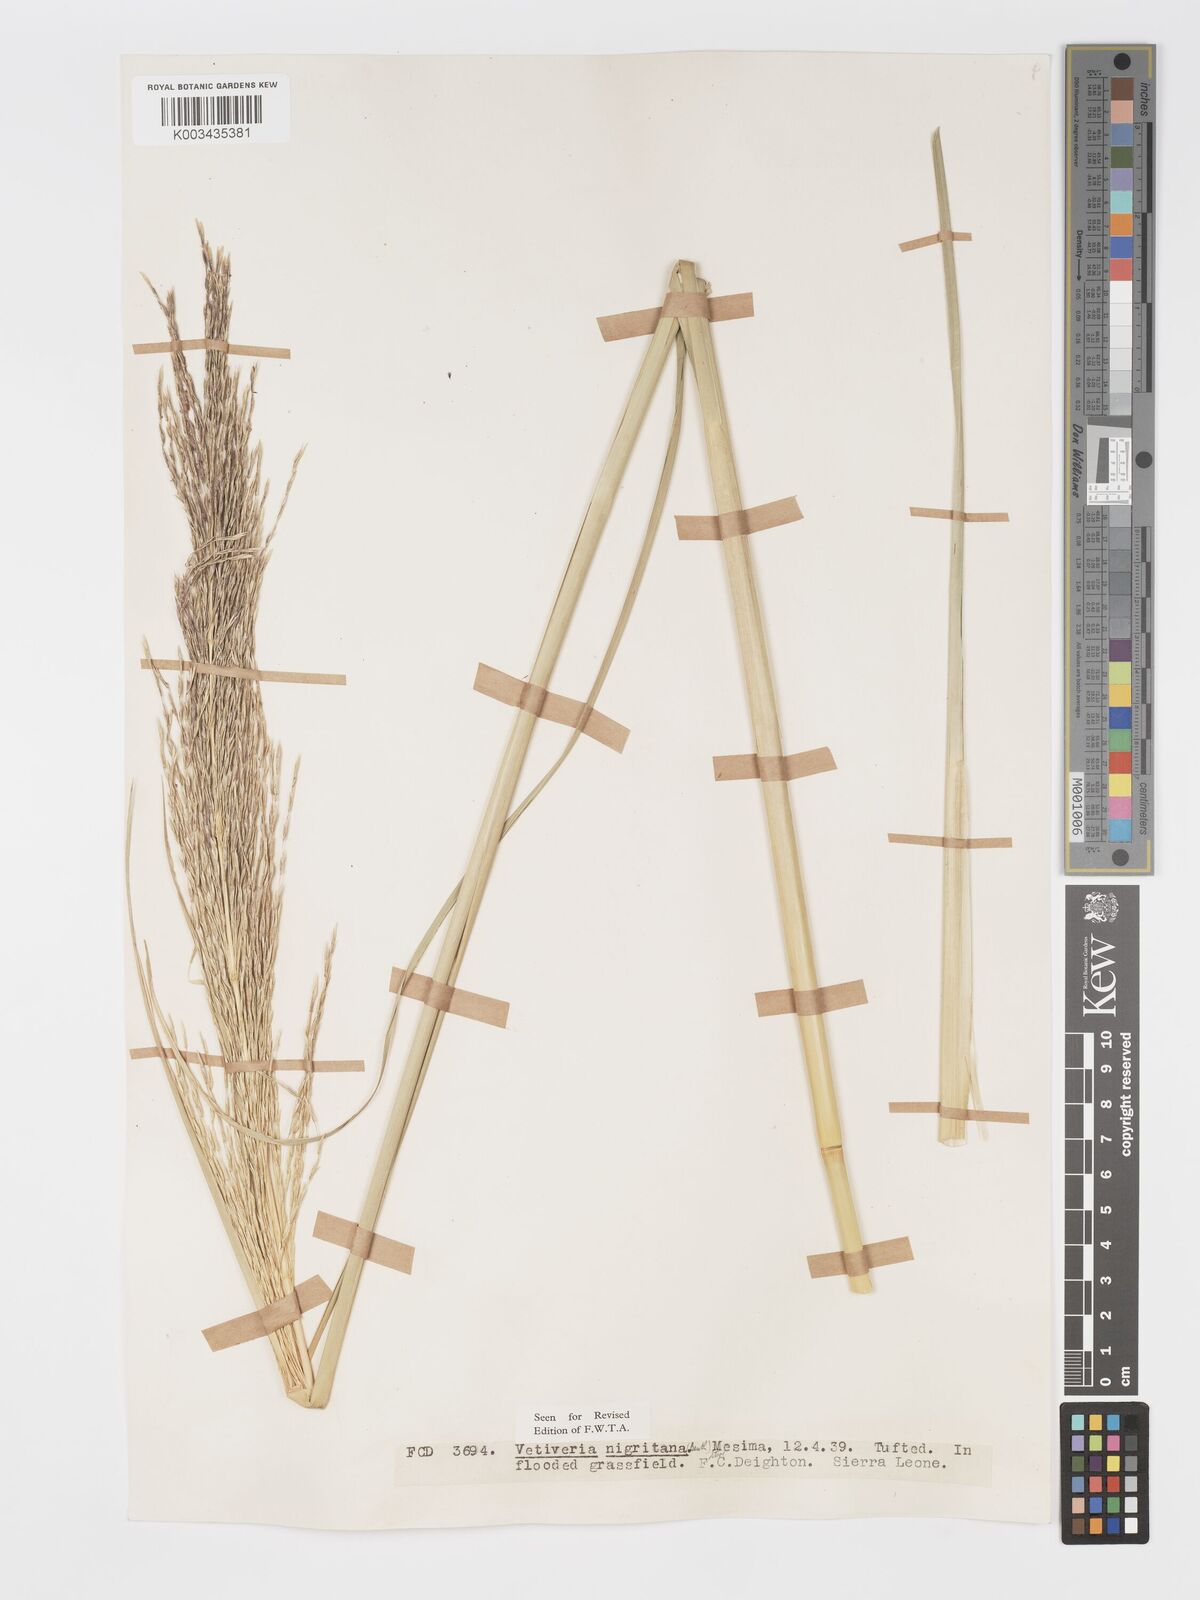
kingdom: Plantae
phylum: Tracheophyta
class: Liliopsida
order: Poales
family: Poaceae
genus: Chrysopogon
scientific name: Chrysopogon nigritanus
